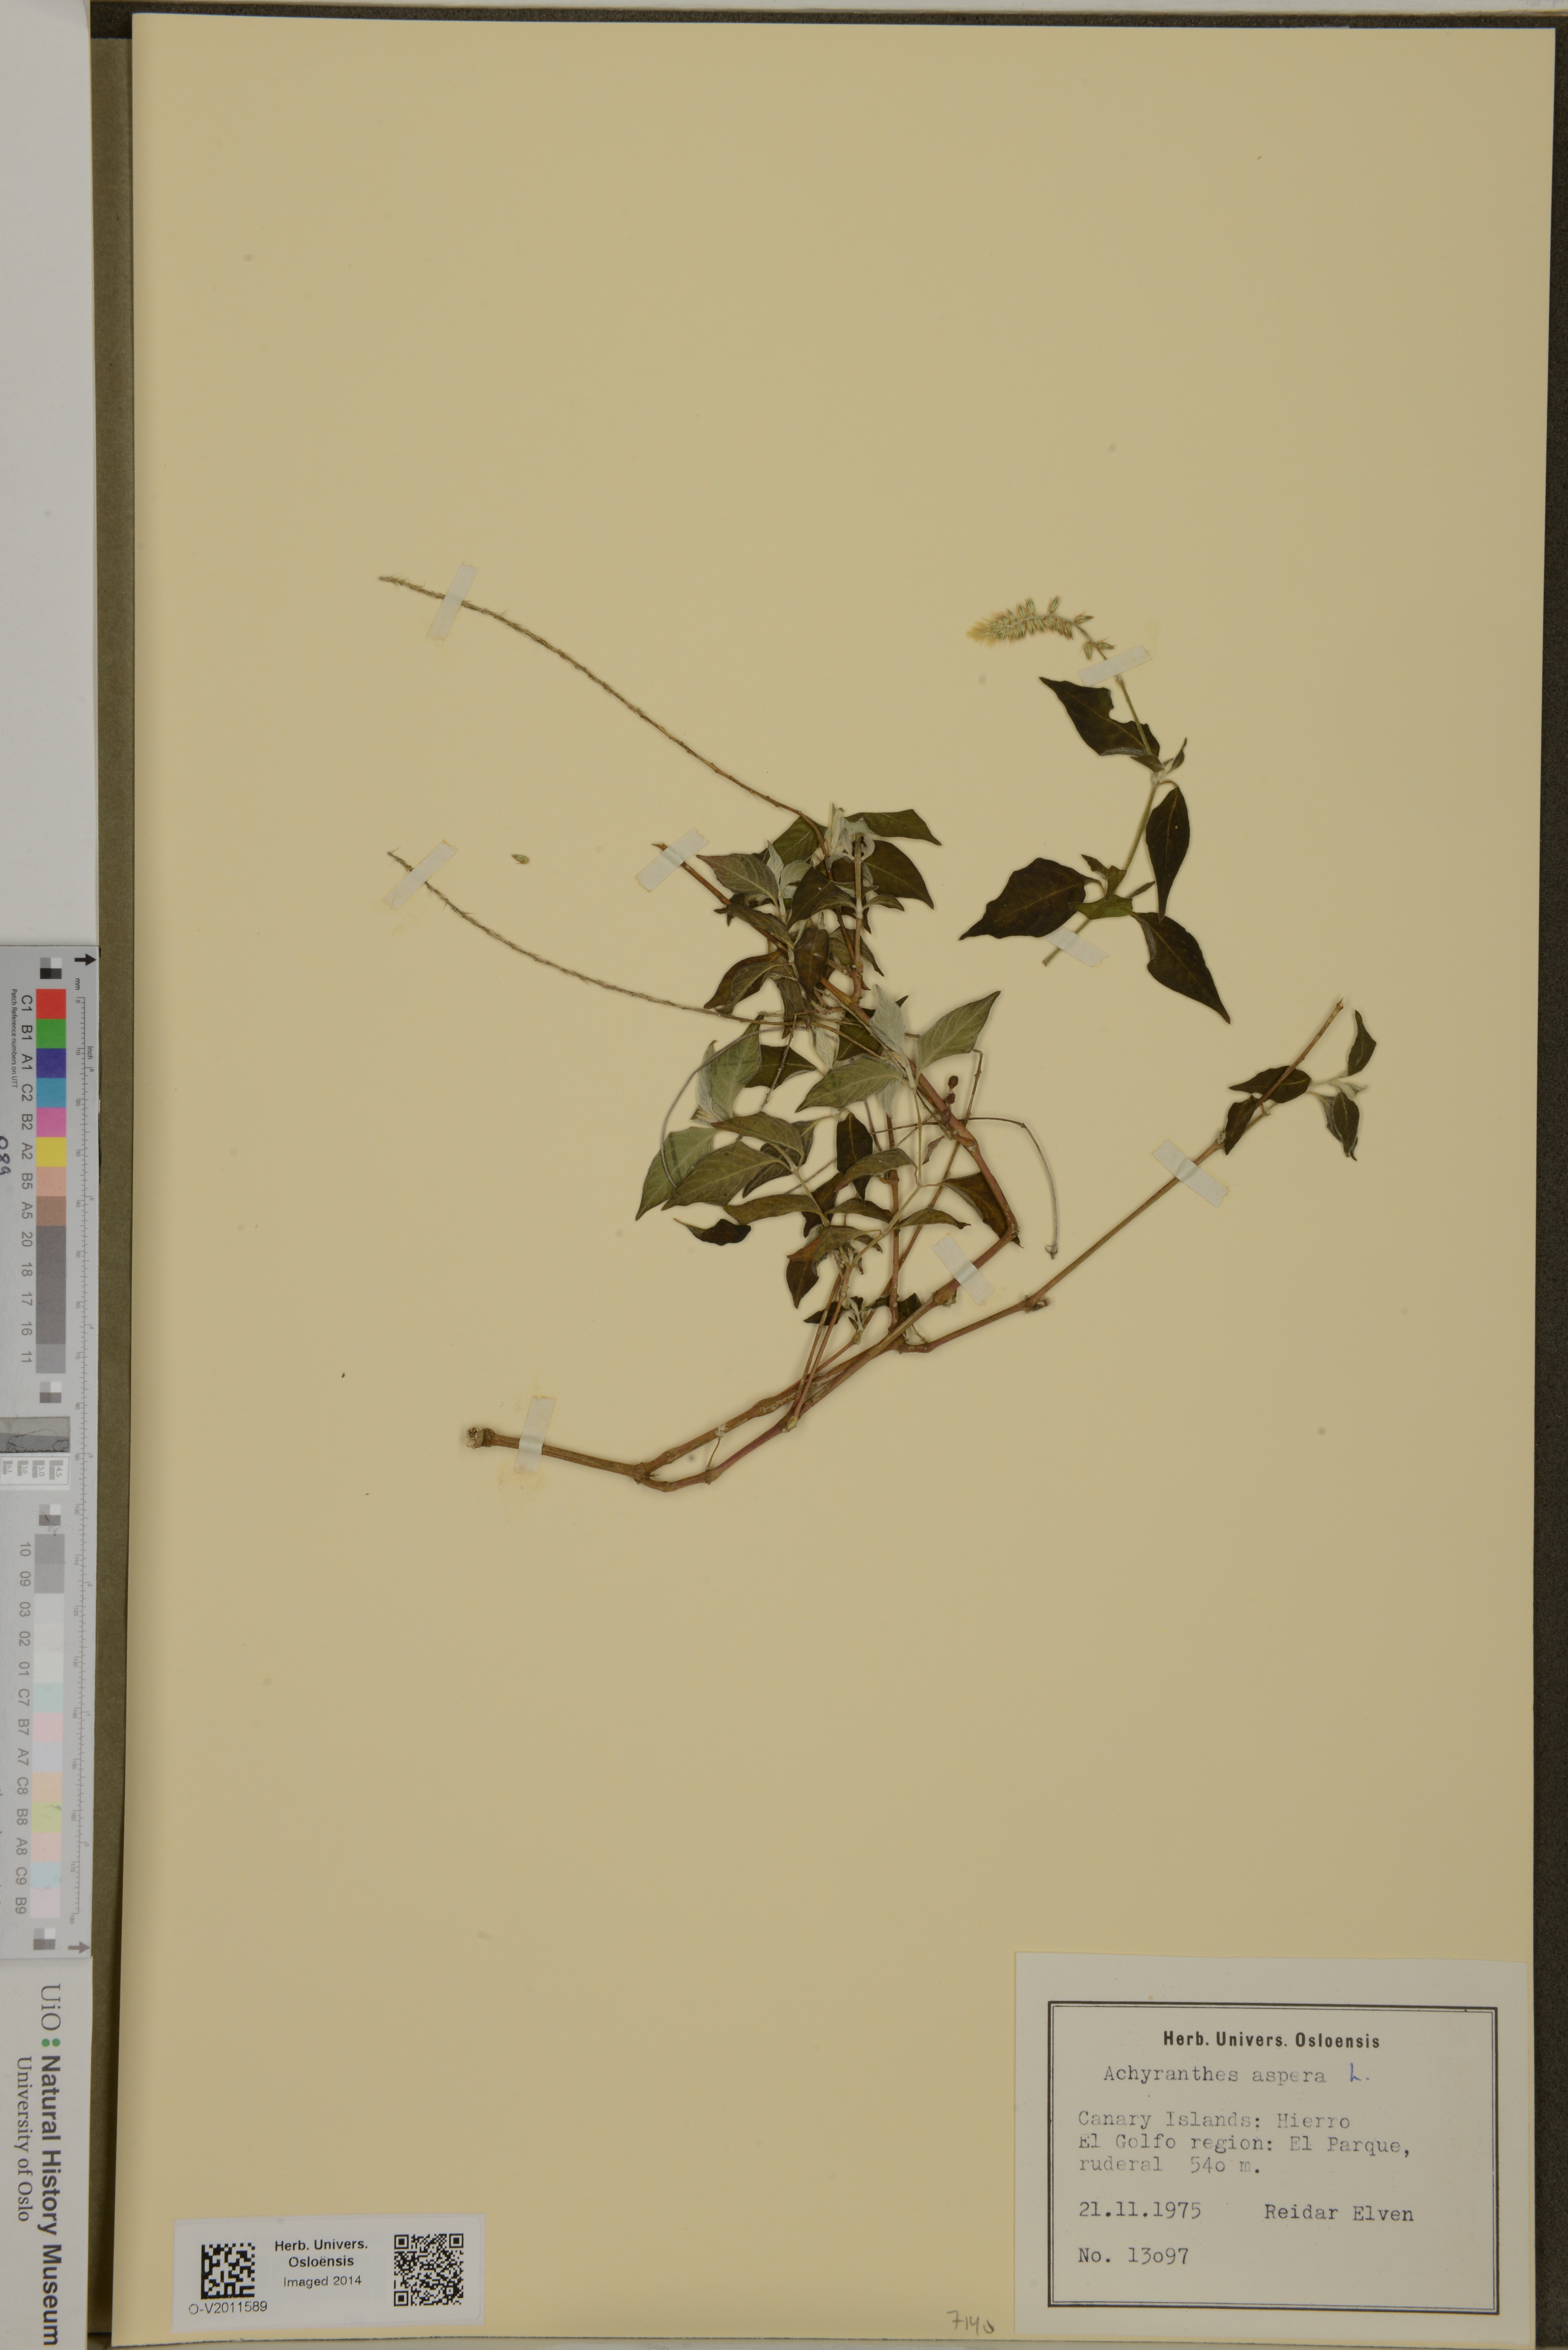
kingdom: Plantae
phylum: Tracheophyta
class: Magnoliopsida
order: Caryophyllales
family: Amaranthaceae
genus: Achyranthes
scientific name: Achyranthes aspera
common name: Devil's horsewhip
